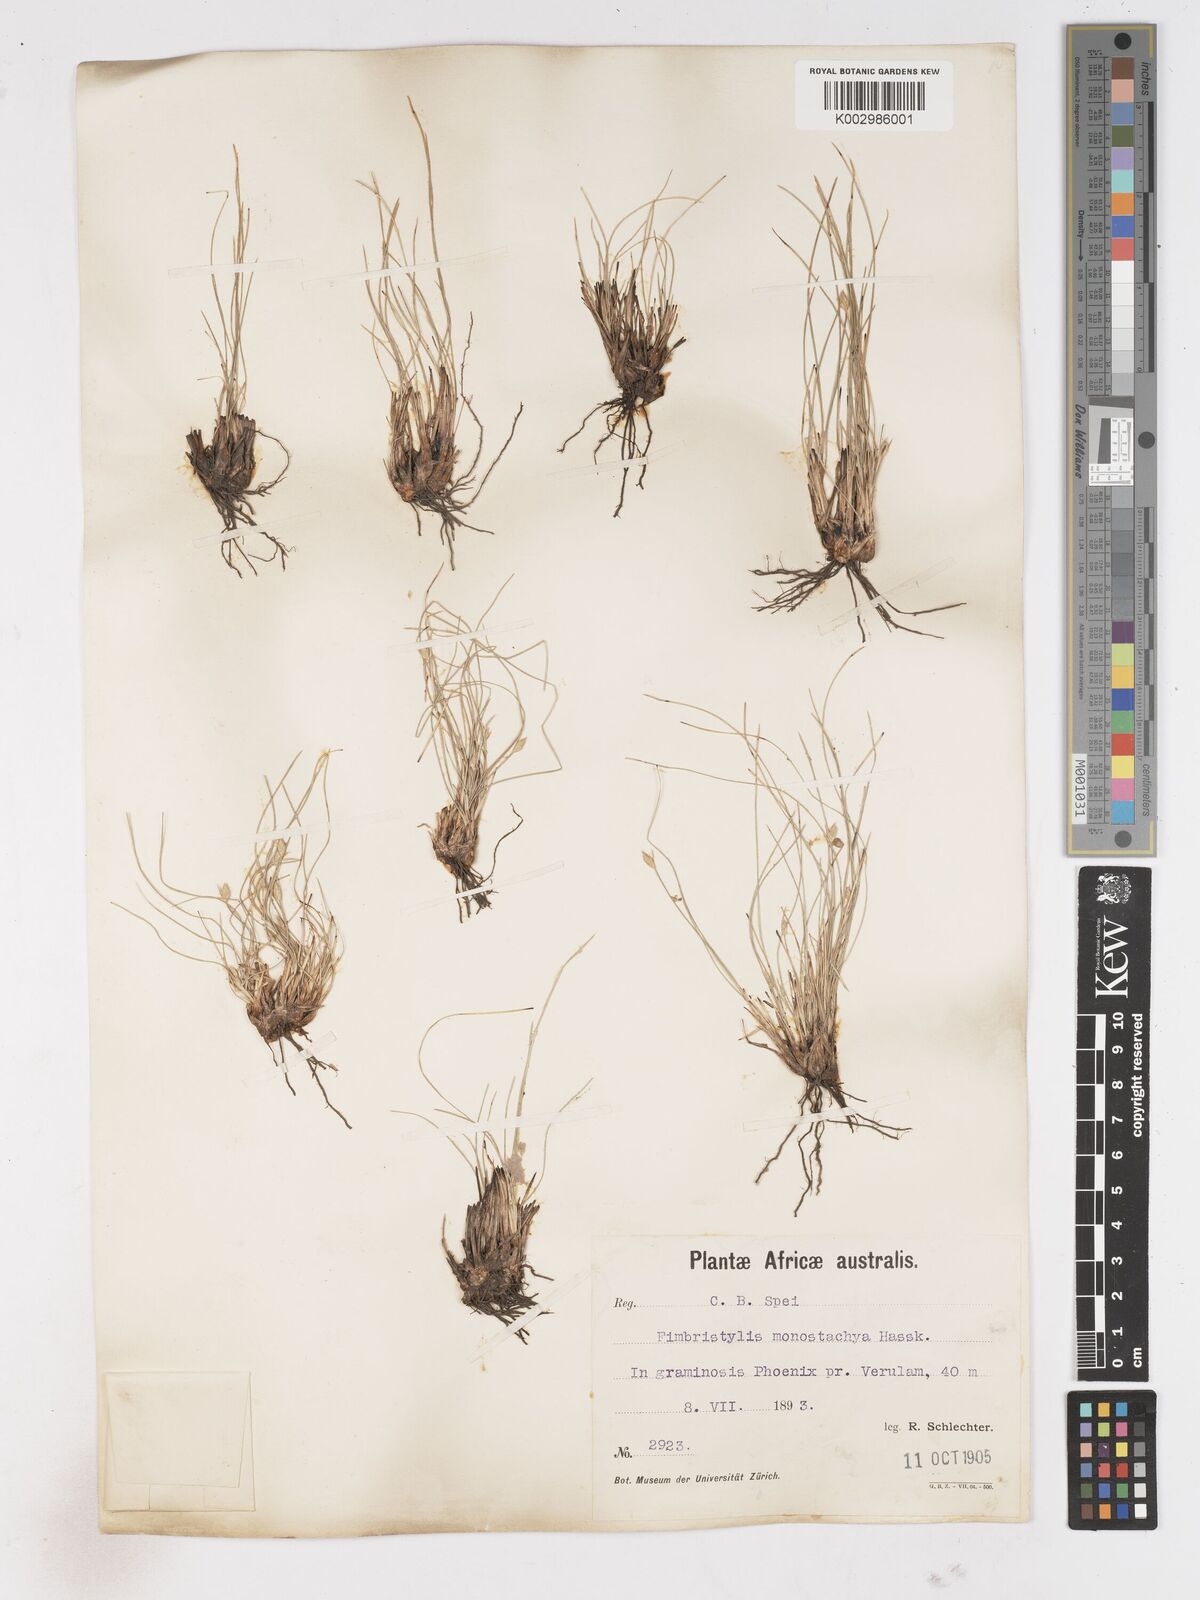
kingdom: Plantae
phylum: Tracheophyta
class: Liliopsida
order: Poales
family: Cyperaceae
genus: Abildgaardia
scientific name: Abildgaardia ovata
